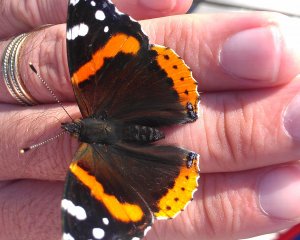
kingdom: Animalia
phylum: Arthropoda
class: Insecta
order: Lepidoptera
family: Nymphalidae
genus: Vanessa
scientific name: Vanessa atalanta
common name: Red Admiral
